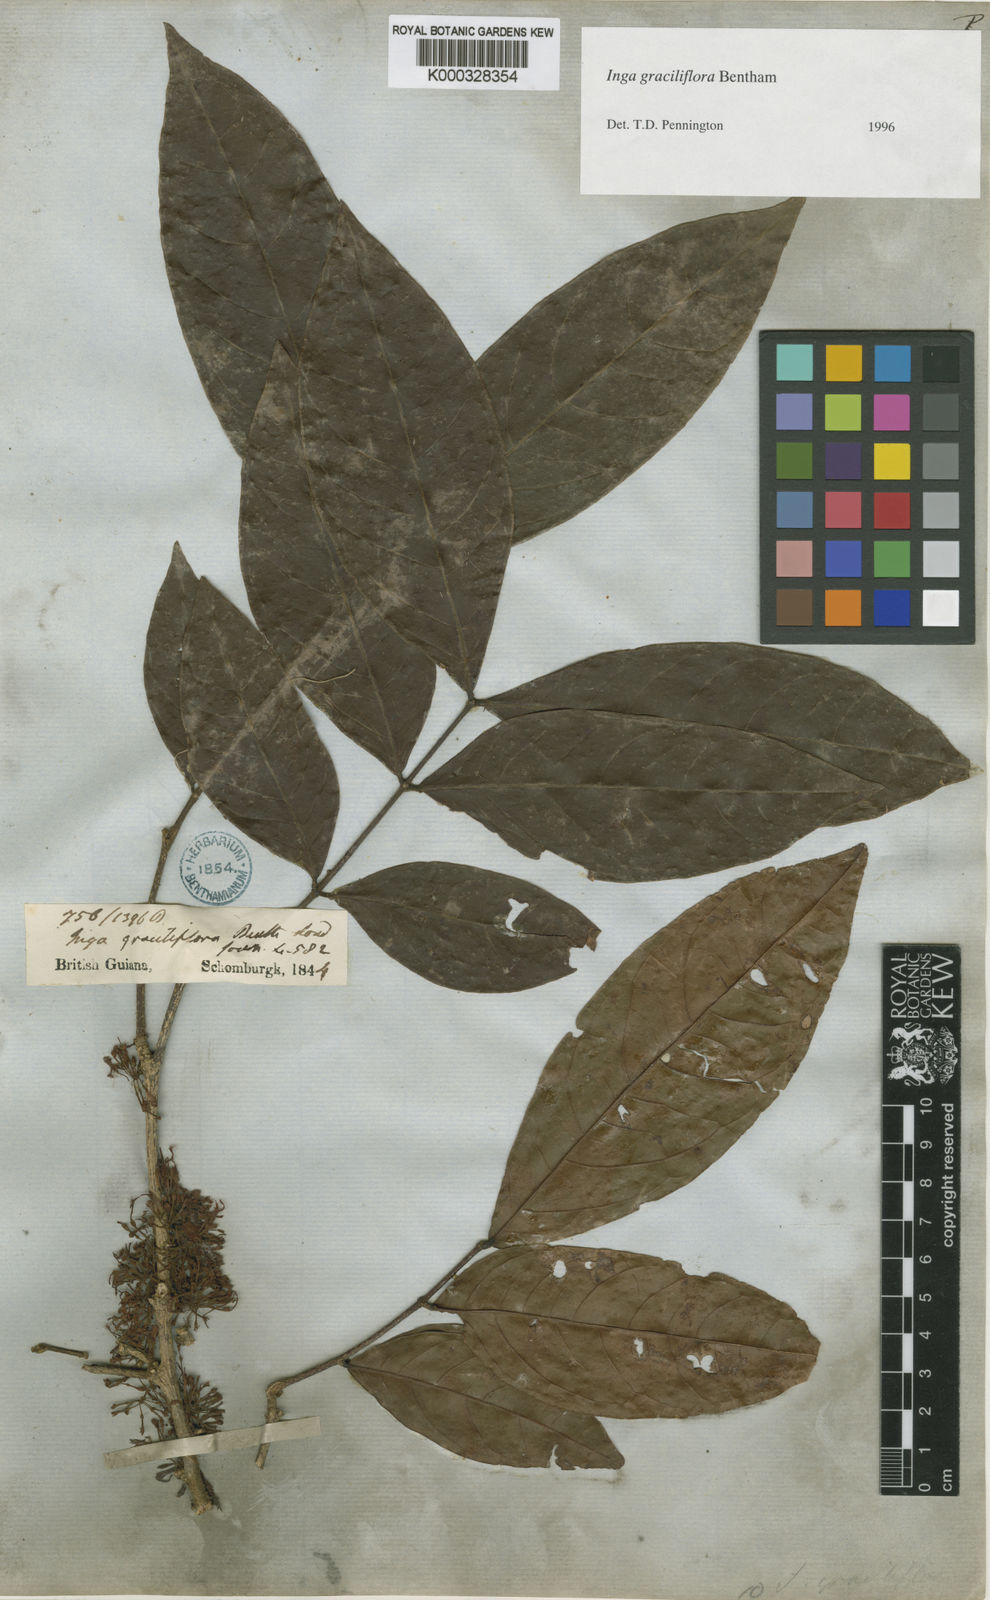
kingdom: Plantae
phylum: Tracheophyta
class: Magnoliopsida
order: Fabales
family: Fabaceae
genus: Inga
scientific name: Inga graciliflora
